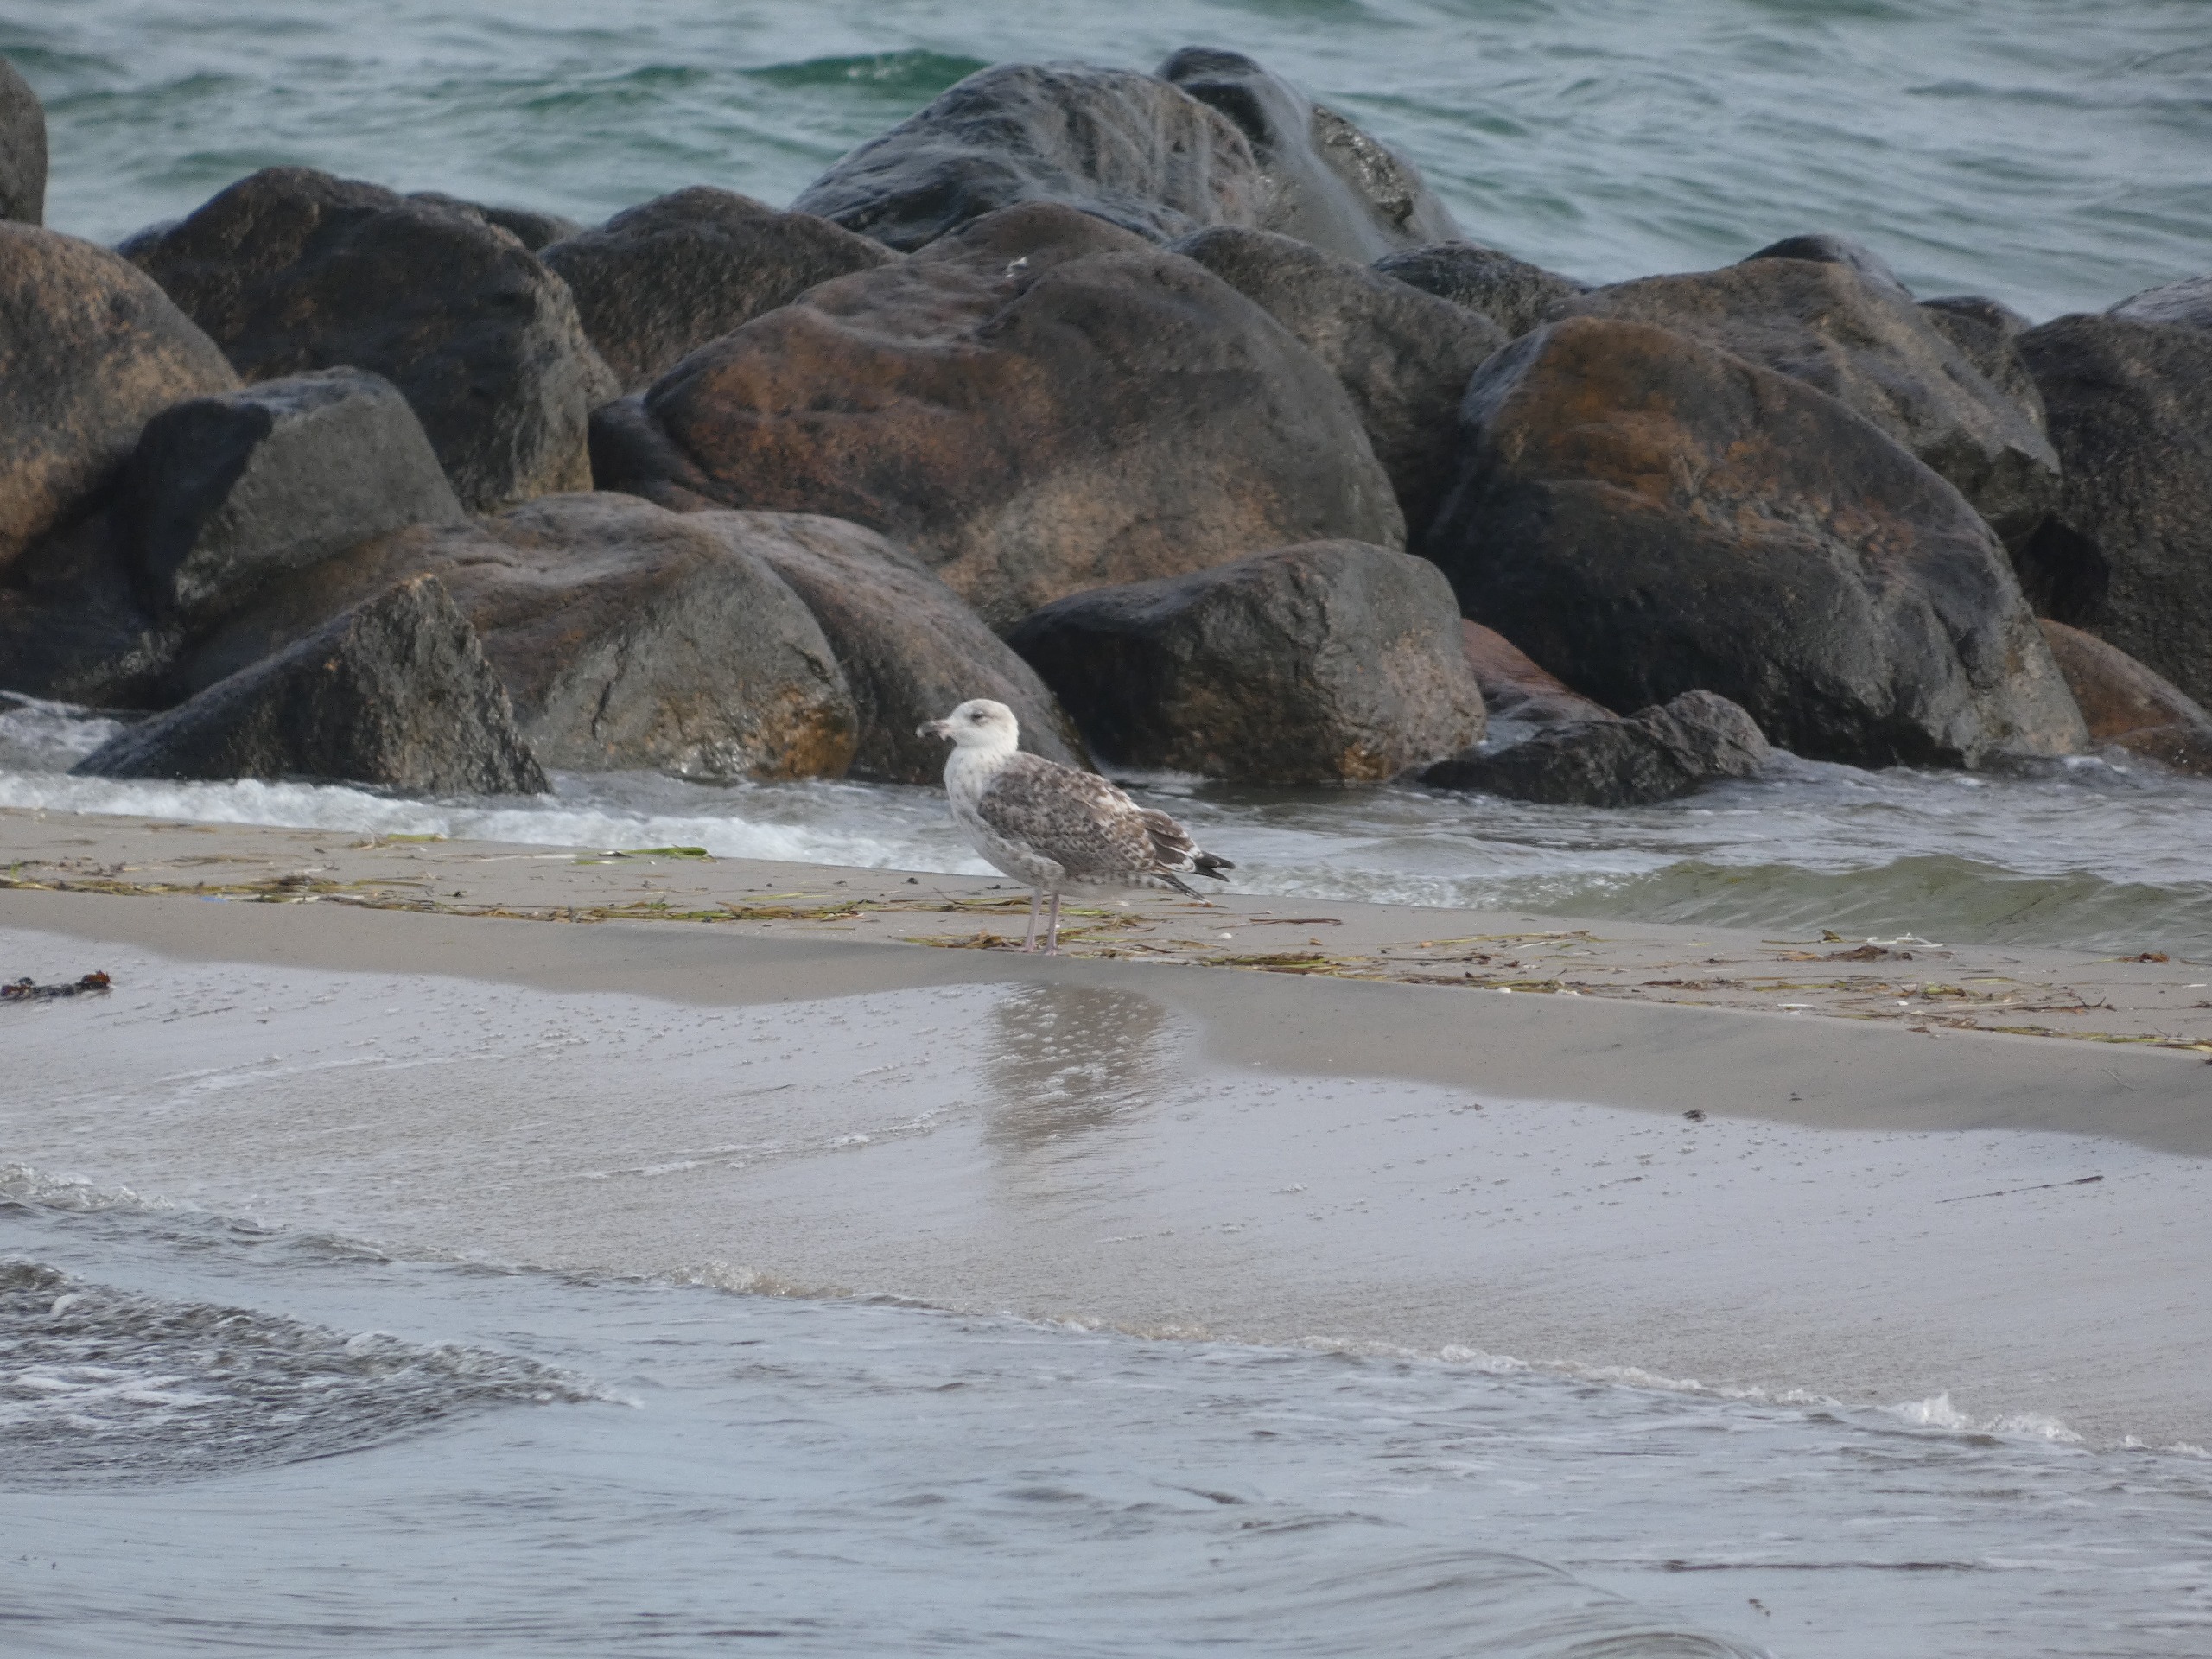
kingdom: Animalia
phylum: Chordata
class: Aves
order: Charadriiformes
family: Laridae
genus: Larus
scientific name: Larus argentatus
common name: Sølvmåge
